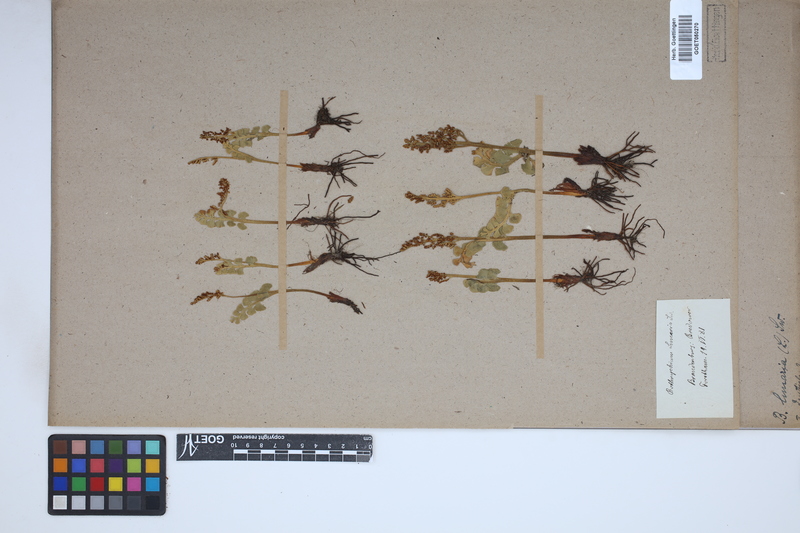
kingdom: Plantae
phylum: Tracheophyta
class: Polypodiopsida
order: Ophioglossales
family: Ophioglossaceae
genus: Botrychium
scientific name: Botrychium lunaria
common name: Moonwort
